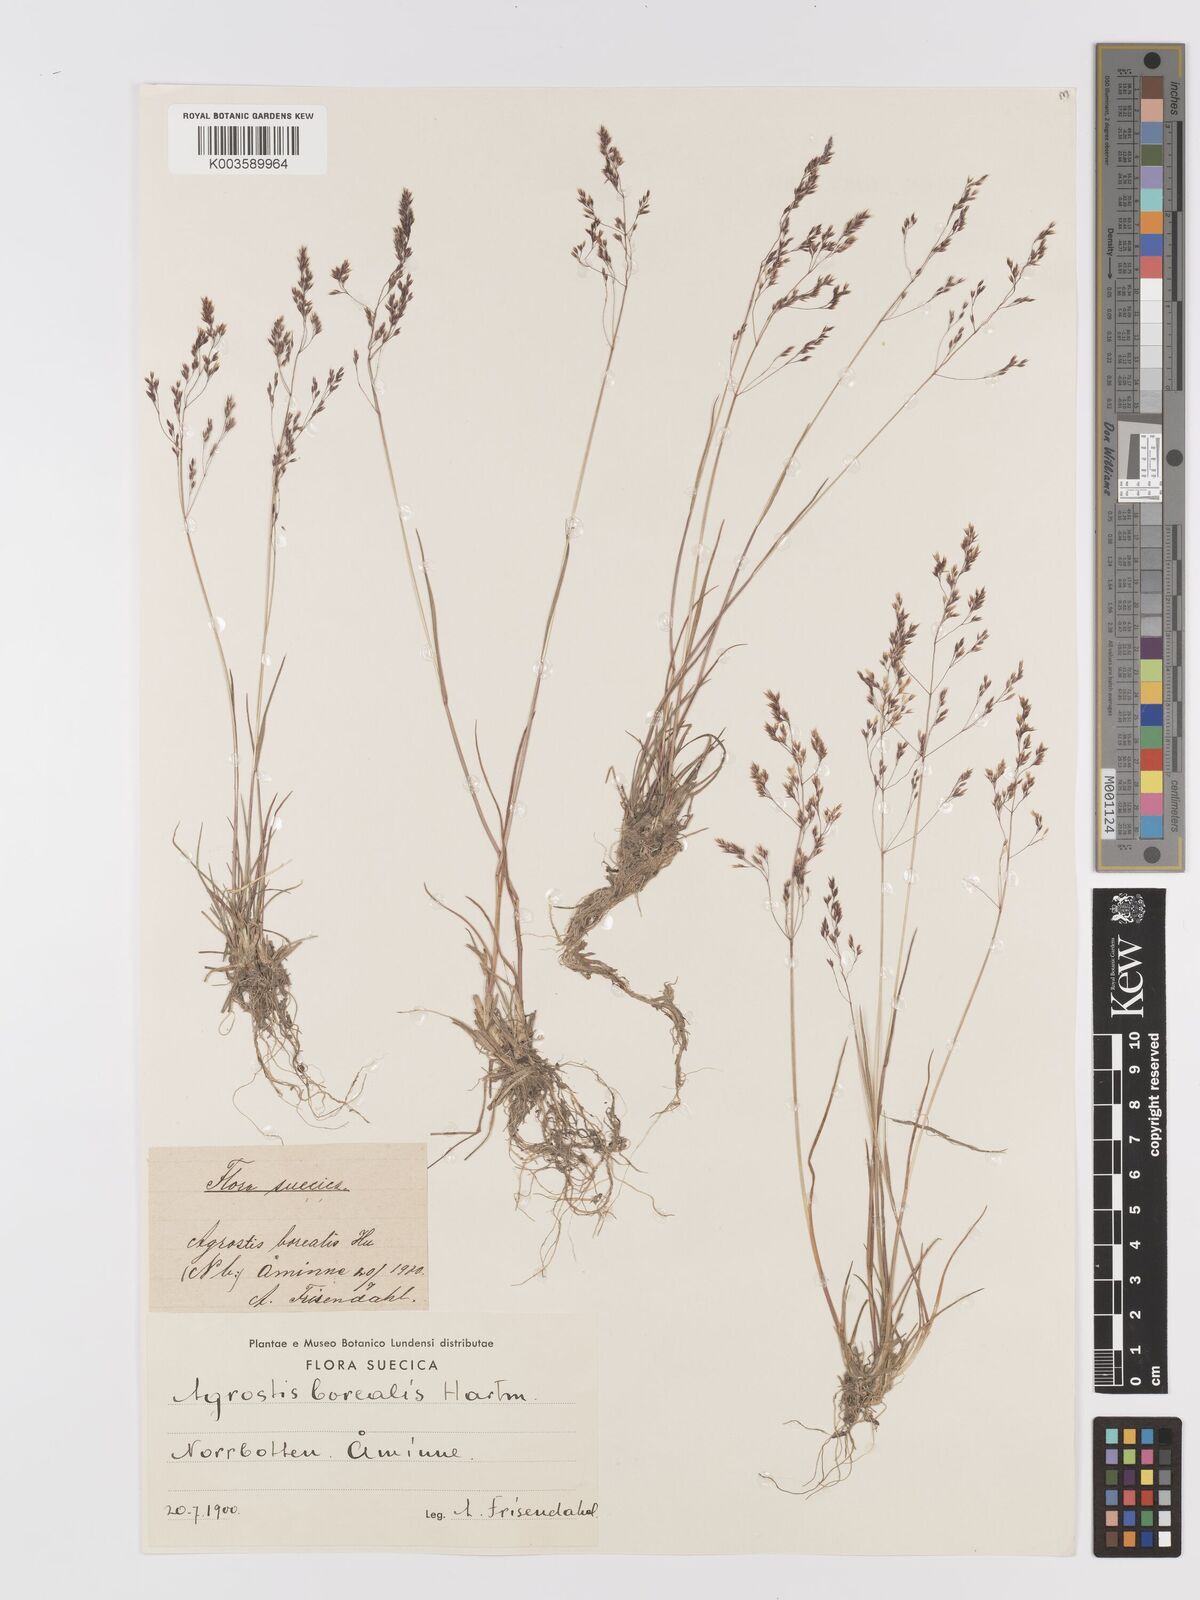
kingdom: Plantae
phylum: Tracheophyta
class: Liliopsida
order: Poales
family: Poaceae
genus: Agrostis
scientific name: Agrostis mertensii
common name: Northern bent
